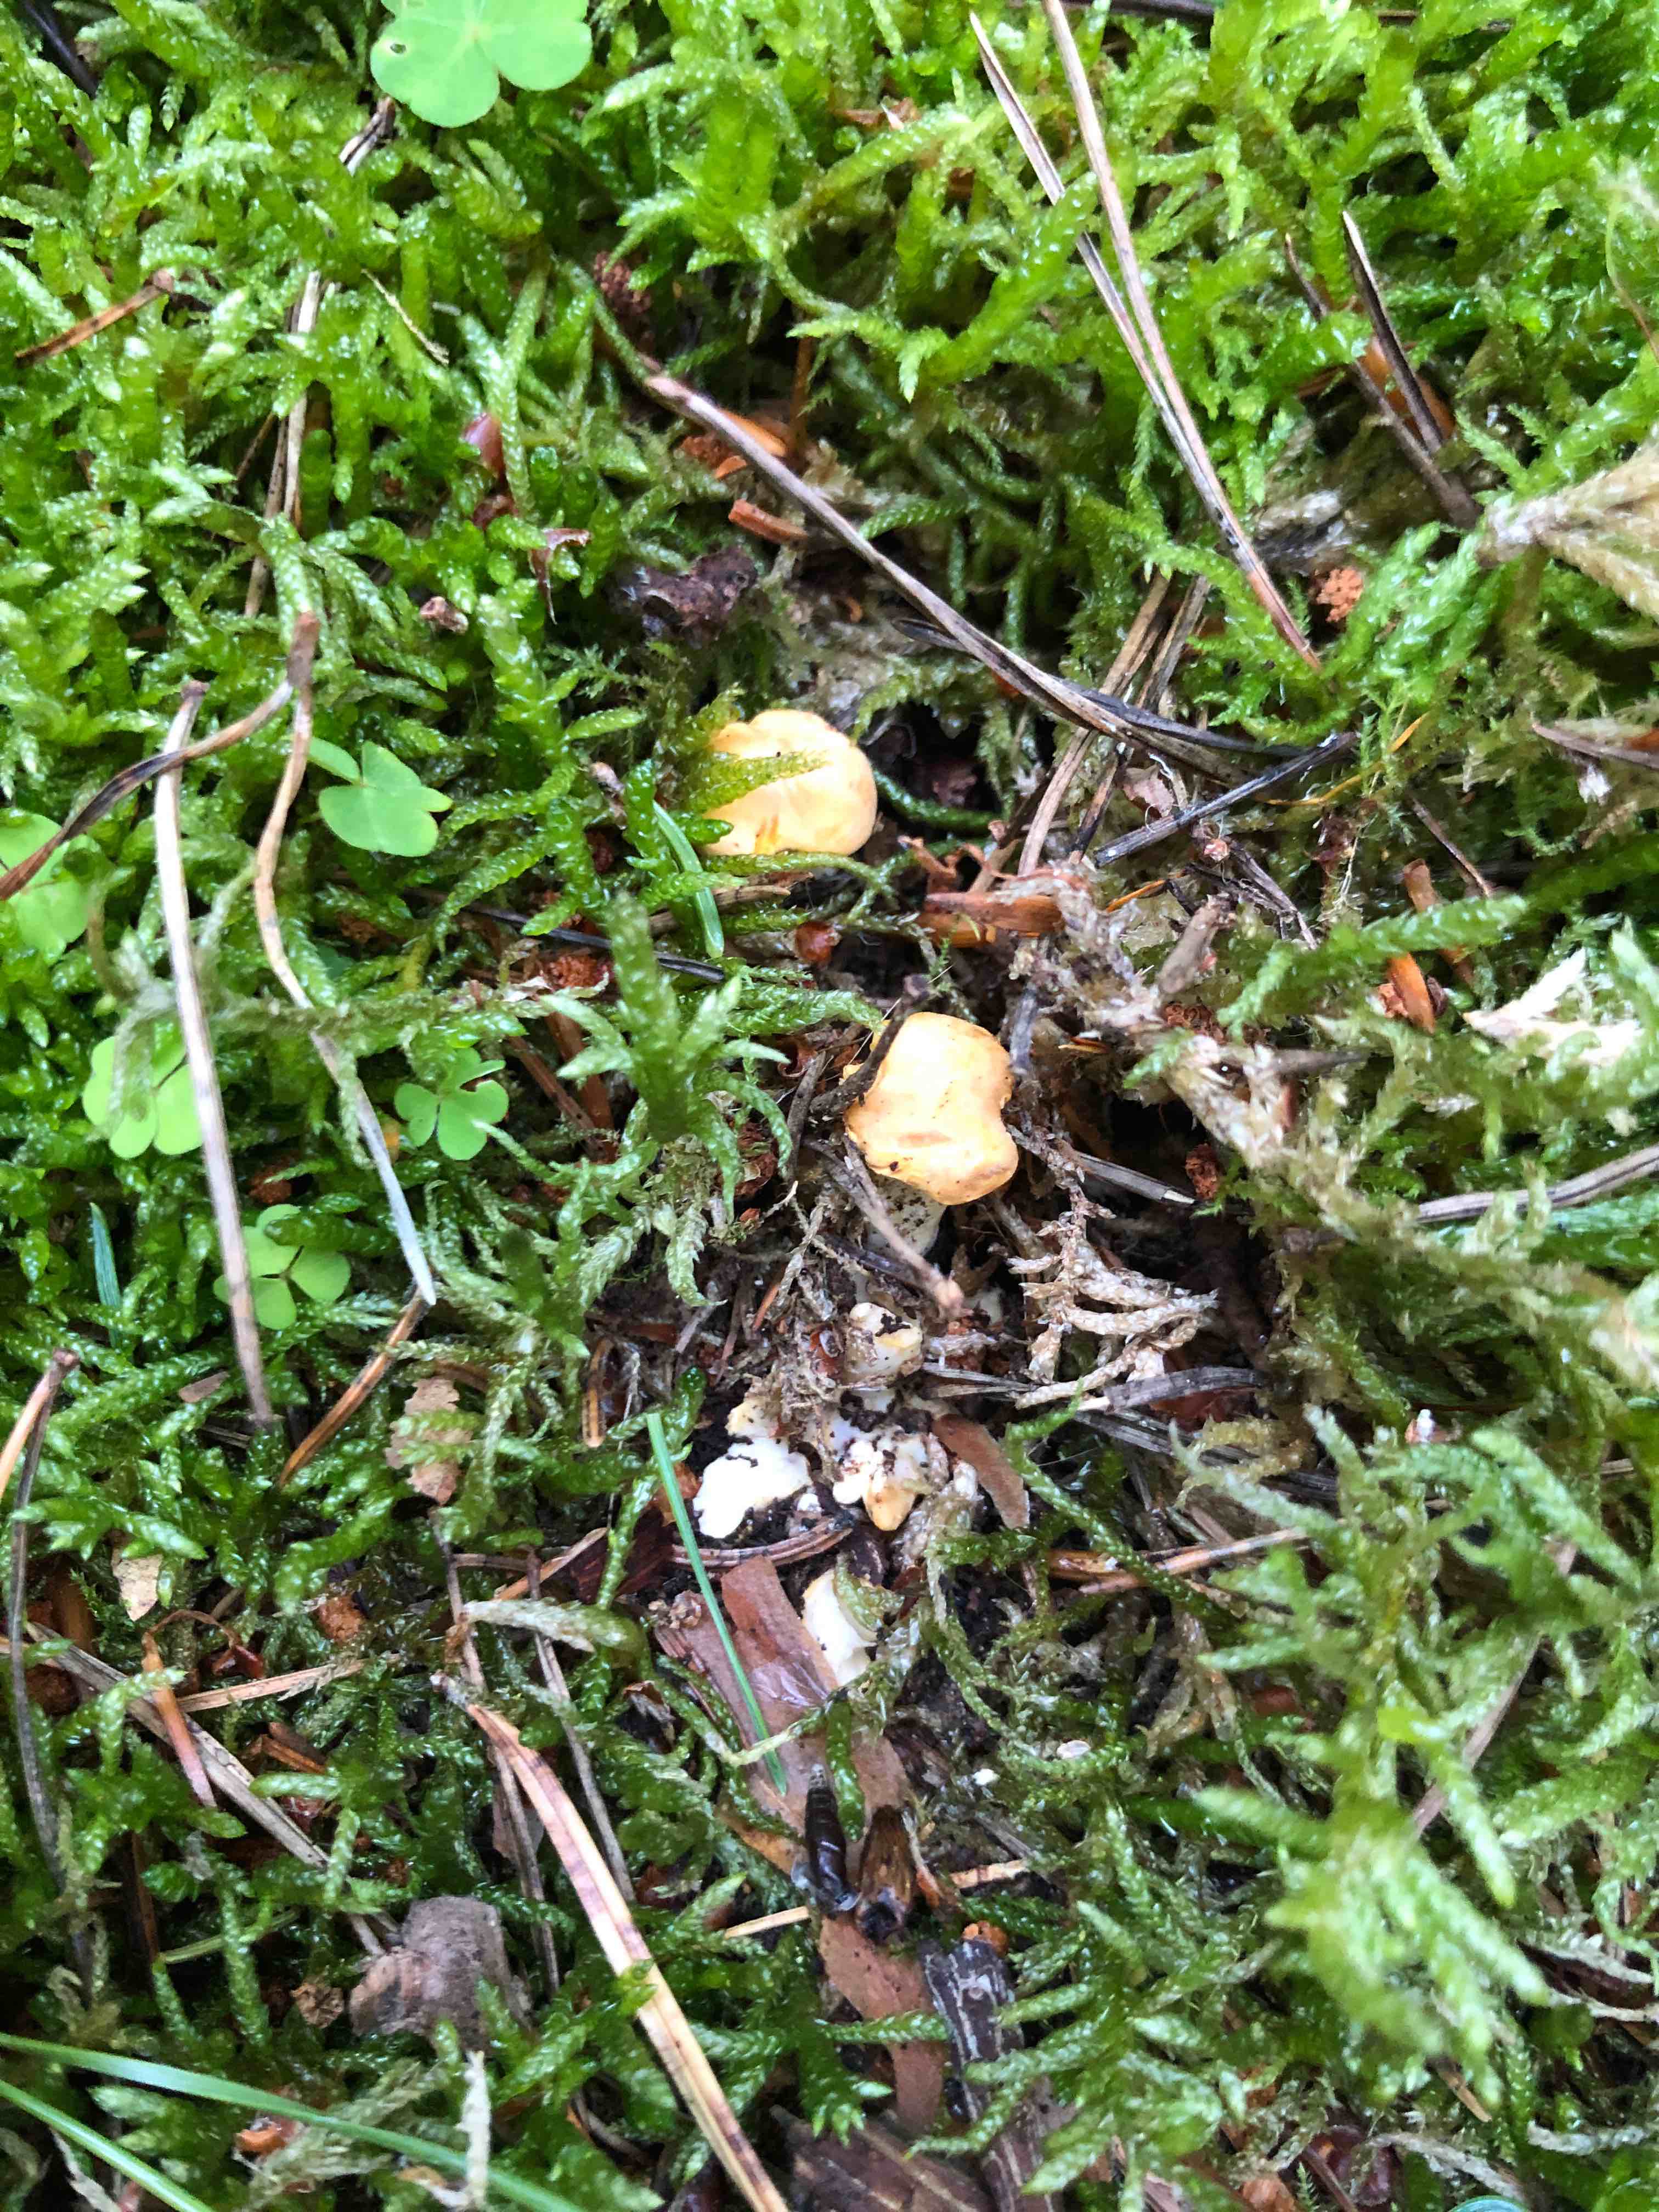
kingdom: Fungi
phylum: Basidiomycota
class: Agaricomycetes
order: Cantharellales
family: Hydnaceae
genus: Hydnum
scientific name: Hydnum
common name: pigsvamp
